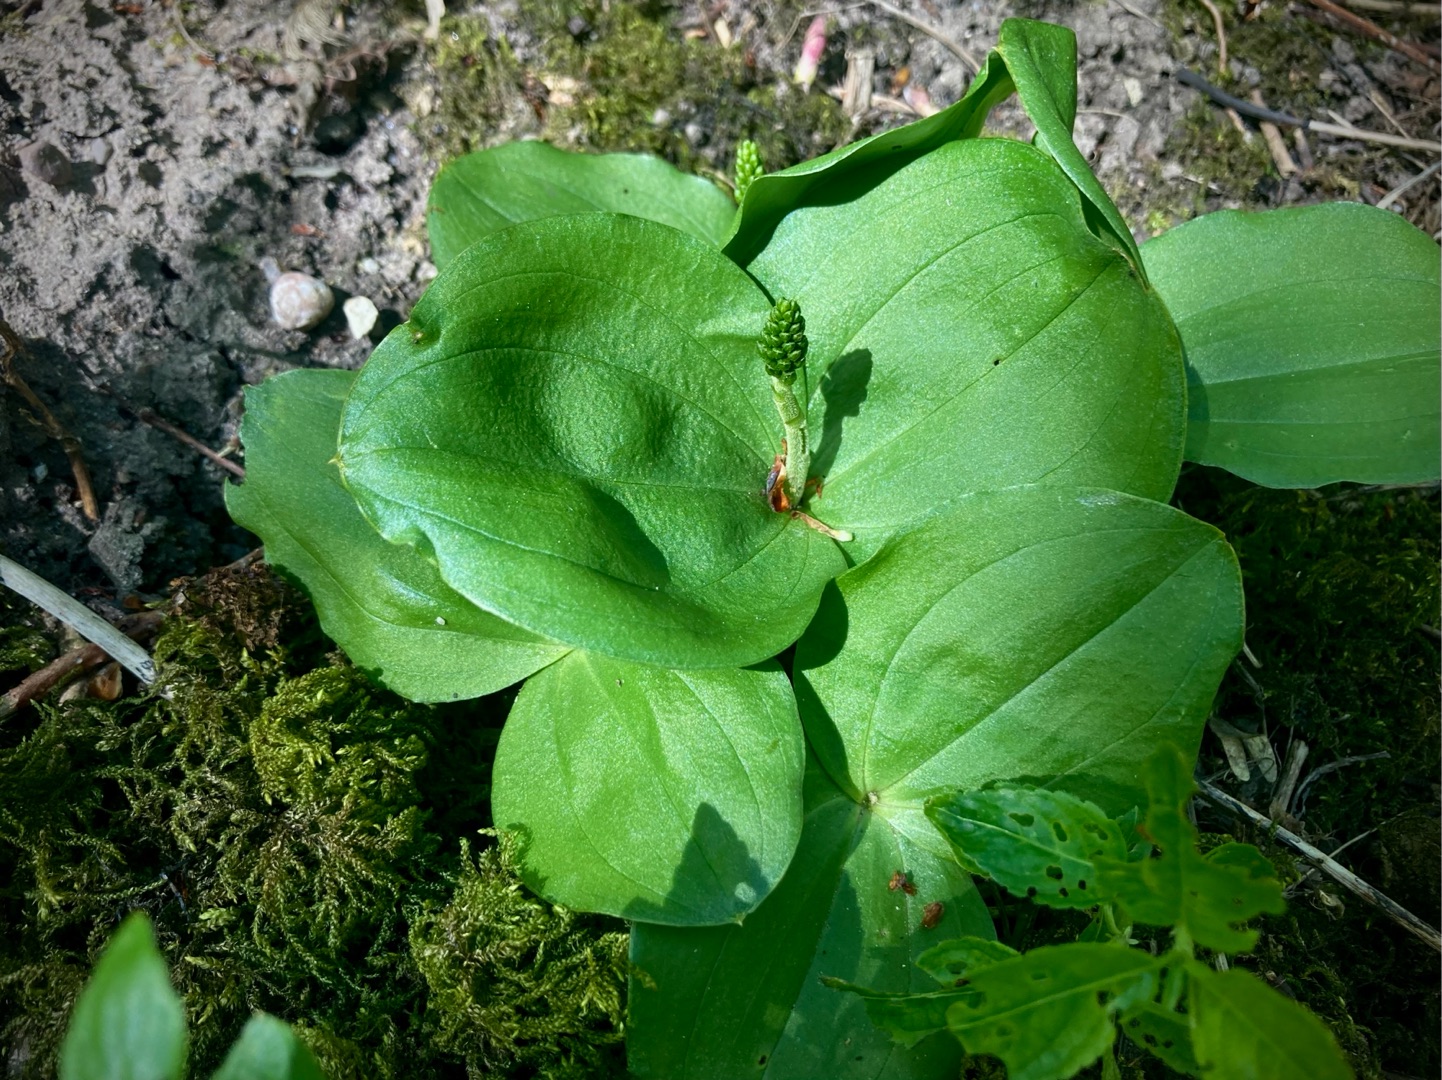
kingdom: Plantae
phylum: Tracheophyta
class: Liliopsida
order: Asparagales
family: Orchidaceae
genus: Neottia
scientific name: Neottia ovata
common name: Ægbladet fliglæbe
